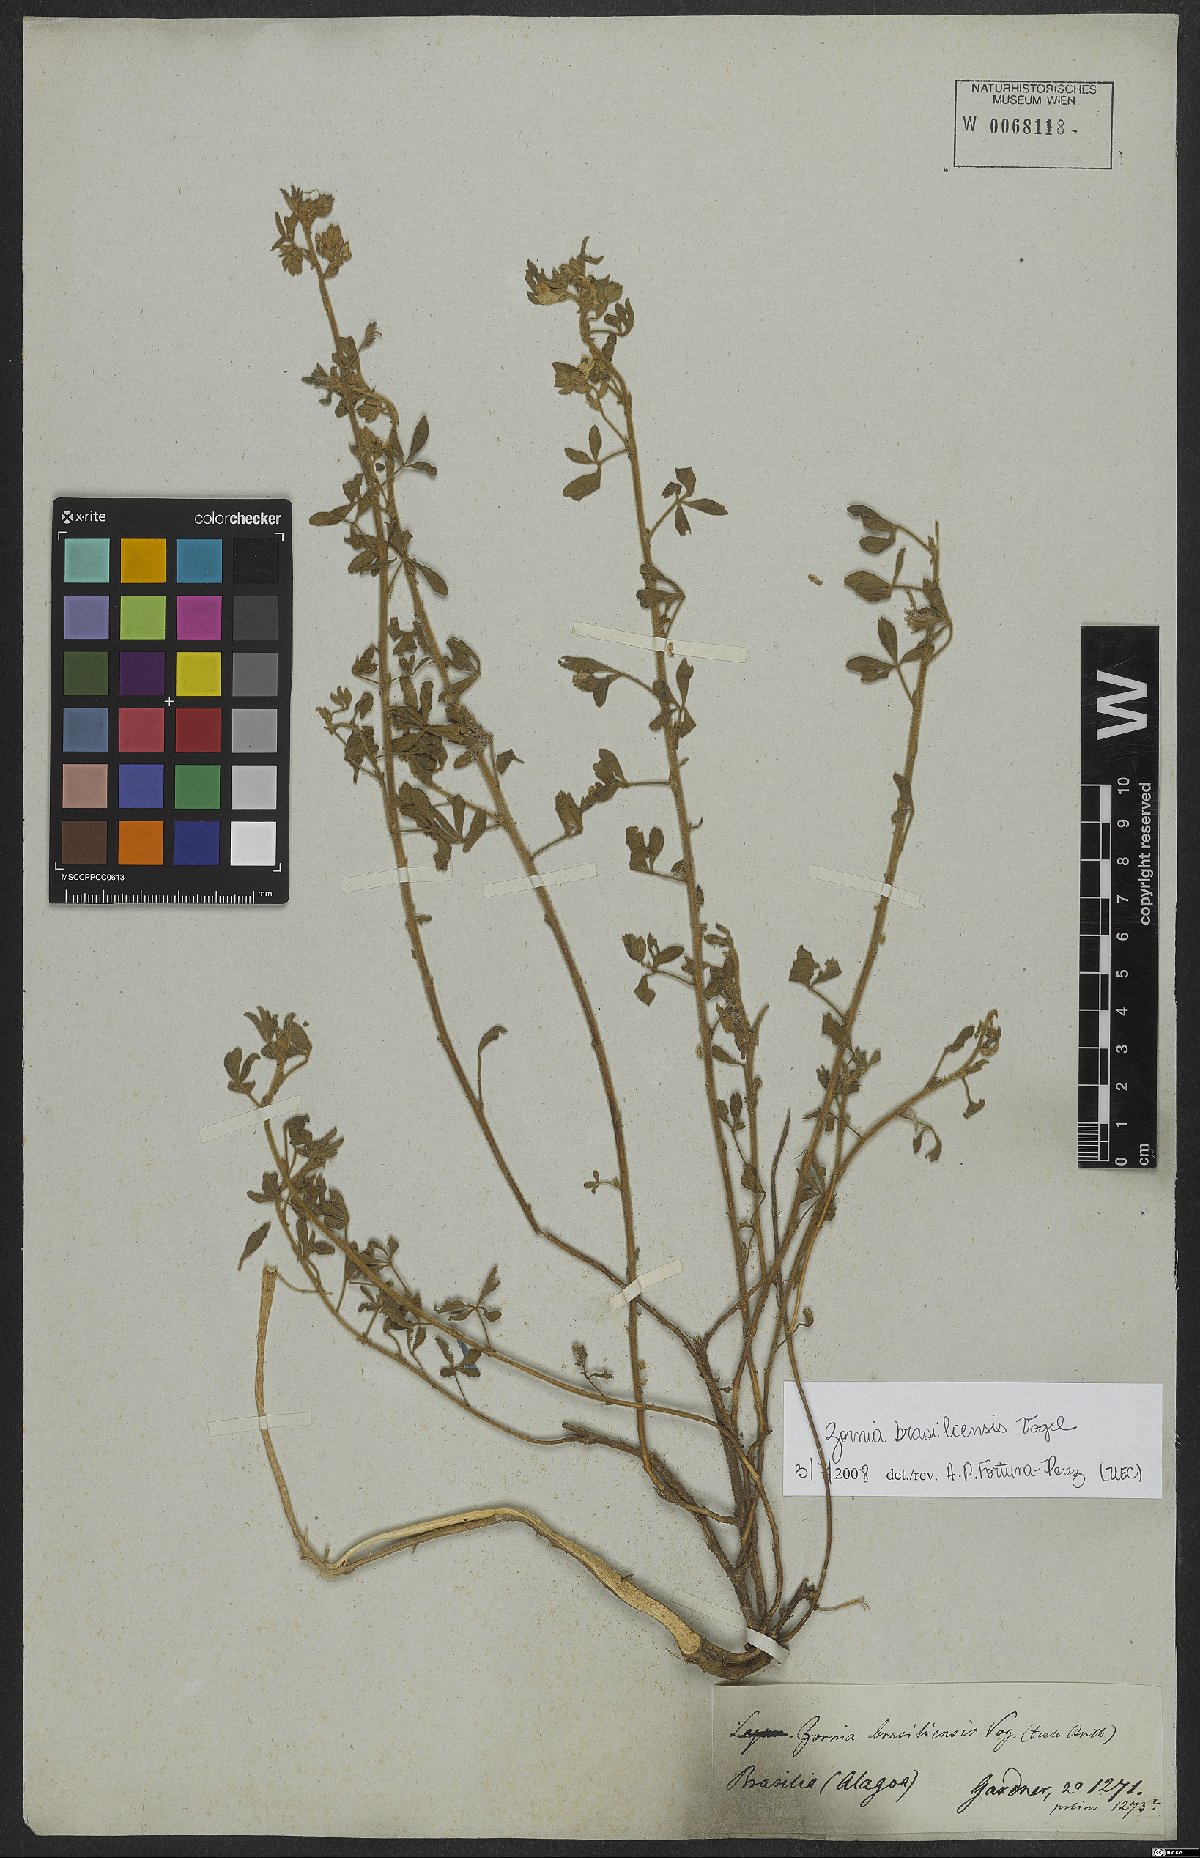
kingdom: Plantae
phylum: Tracheophyta
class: Magnoliopsida
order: Fabales
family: Fabaceae
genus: Zornia
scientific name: Zornia brasiliensis
